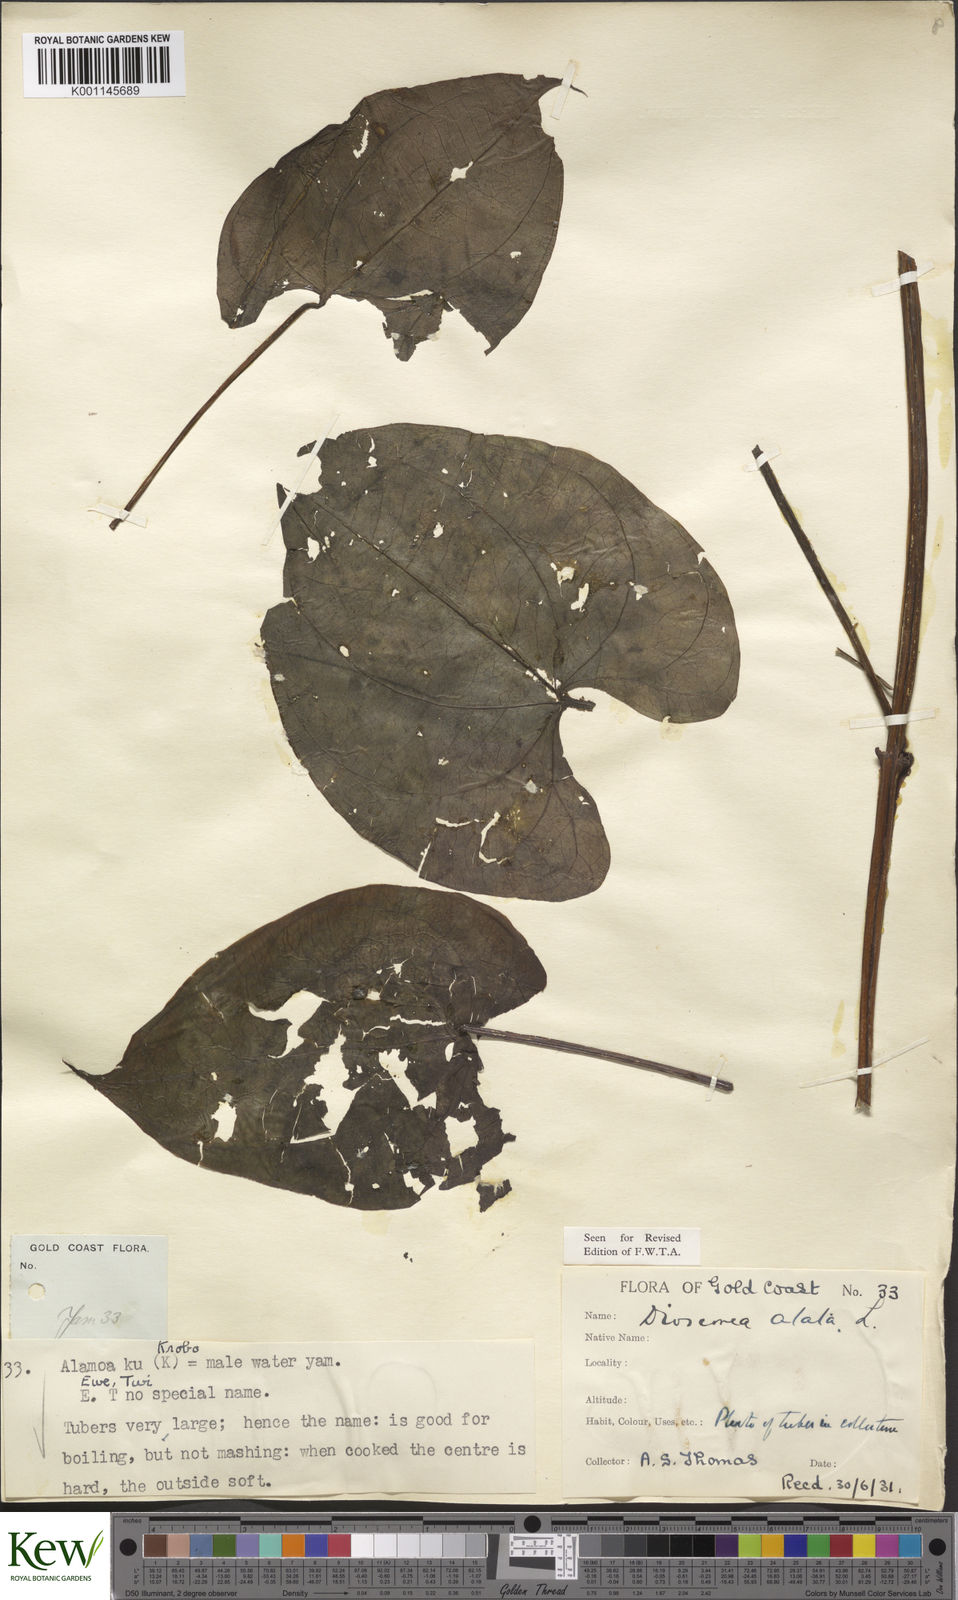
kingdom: Plantae
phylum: Tracheophyta
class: Liliopsida
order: Dioscoreales
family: Dioscoreaceae
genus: Dioscorea
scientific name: Dioscorea alata
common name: Water yam
